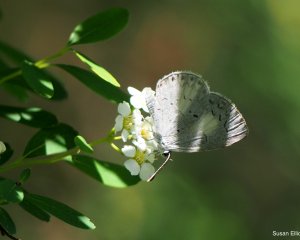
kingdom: Animalia
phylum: Arthropoda
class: Insecta
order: Lepidoptera
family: Lycaenidae
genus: Celastrina
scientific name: Celastrina
